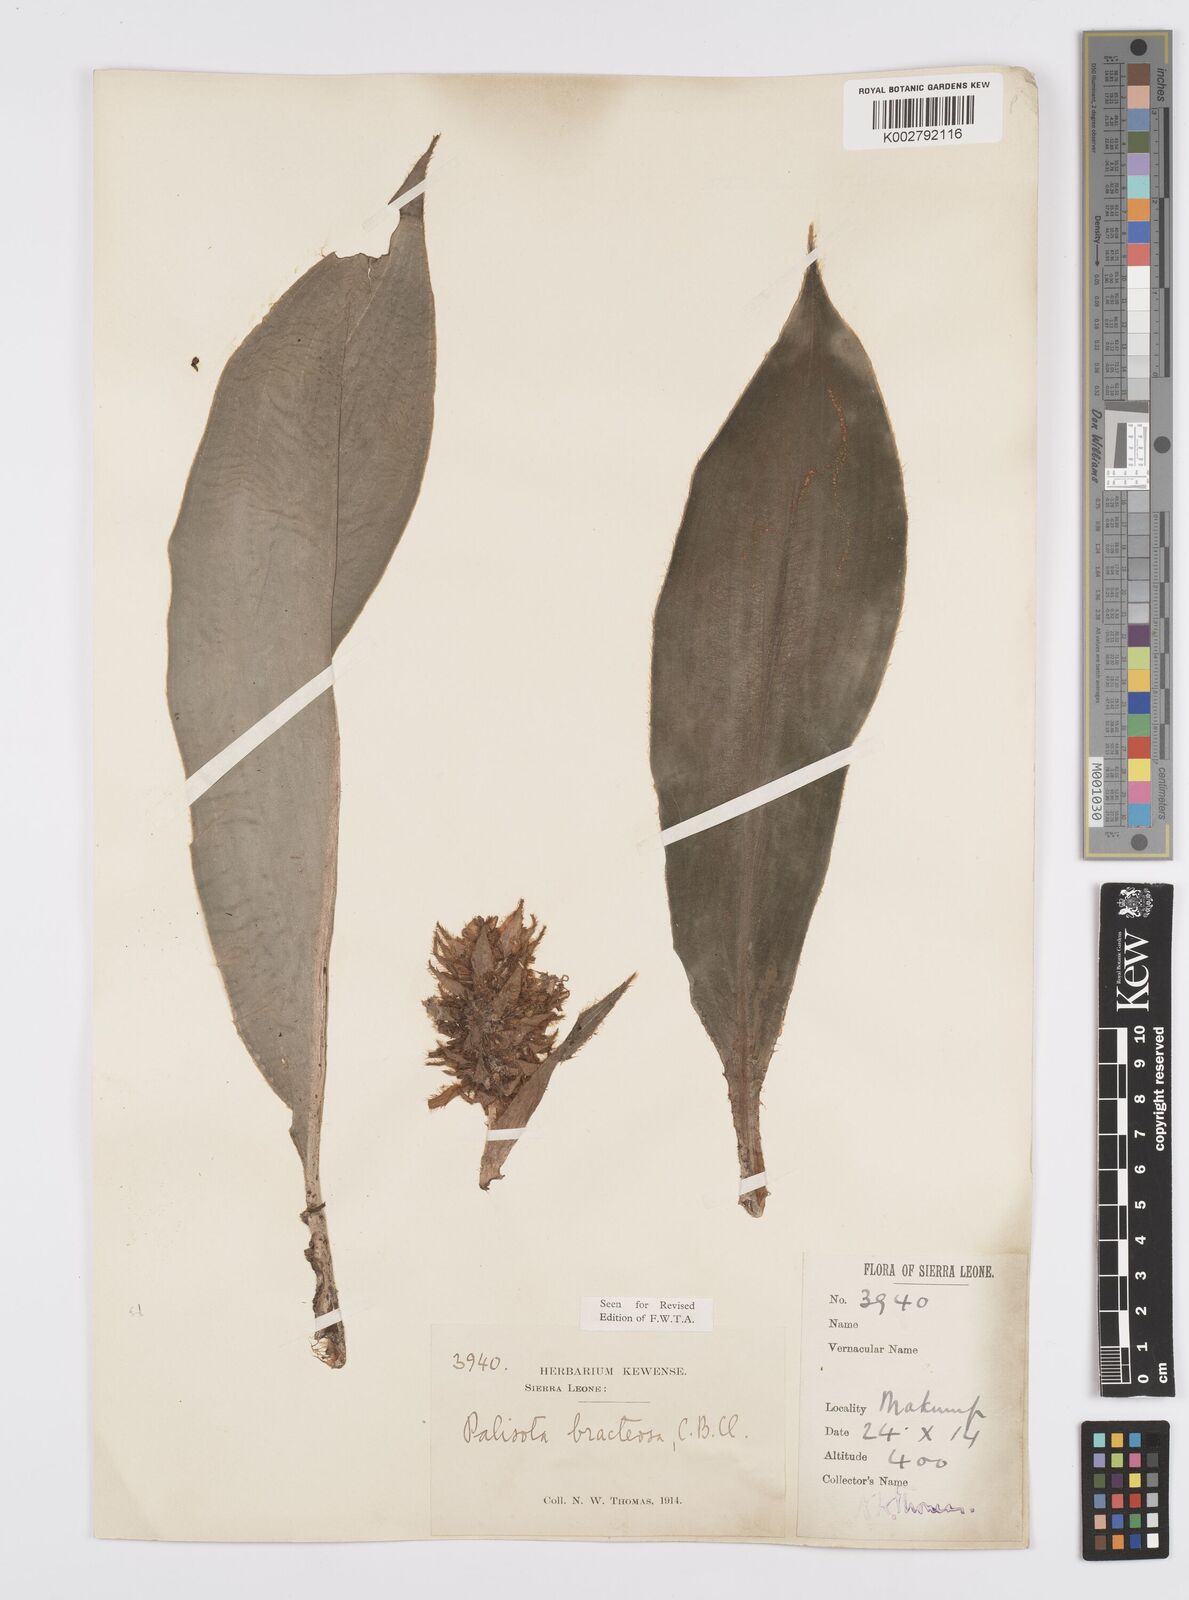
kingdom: Plantae
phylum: Tracheophyta
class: Liliopsida
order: Commelinales
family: Commelinaceae
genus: Palisota
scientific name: Palisota bracteosa
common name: Palisota
